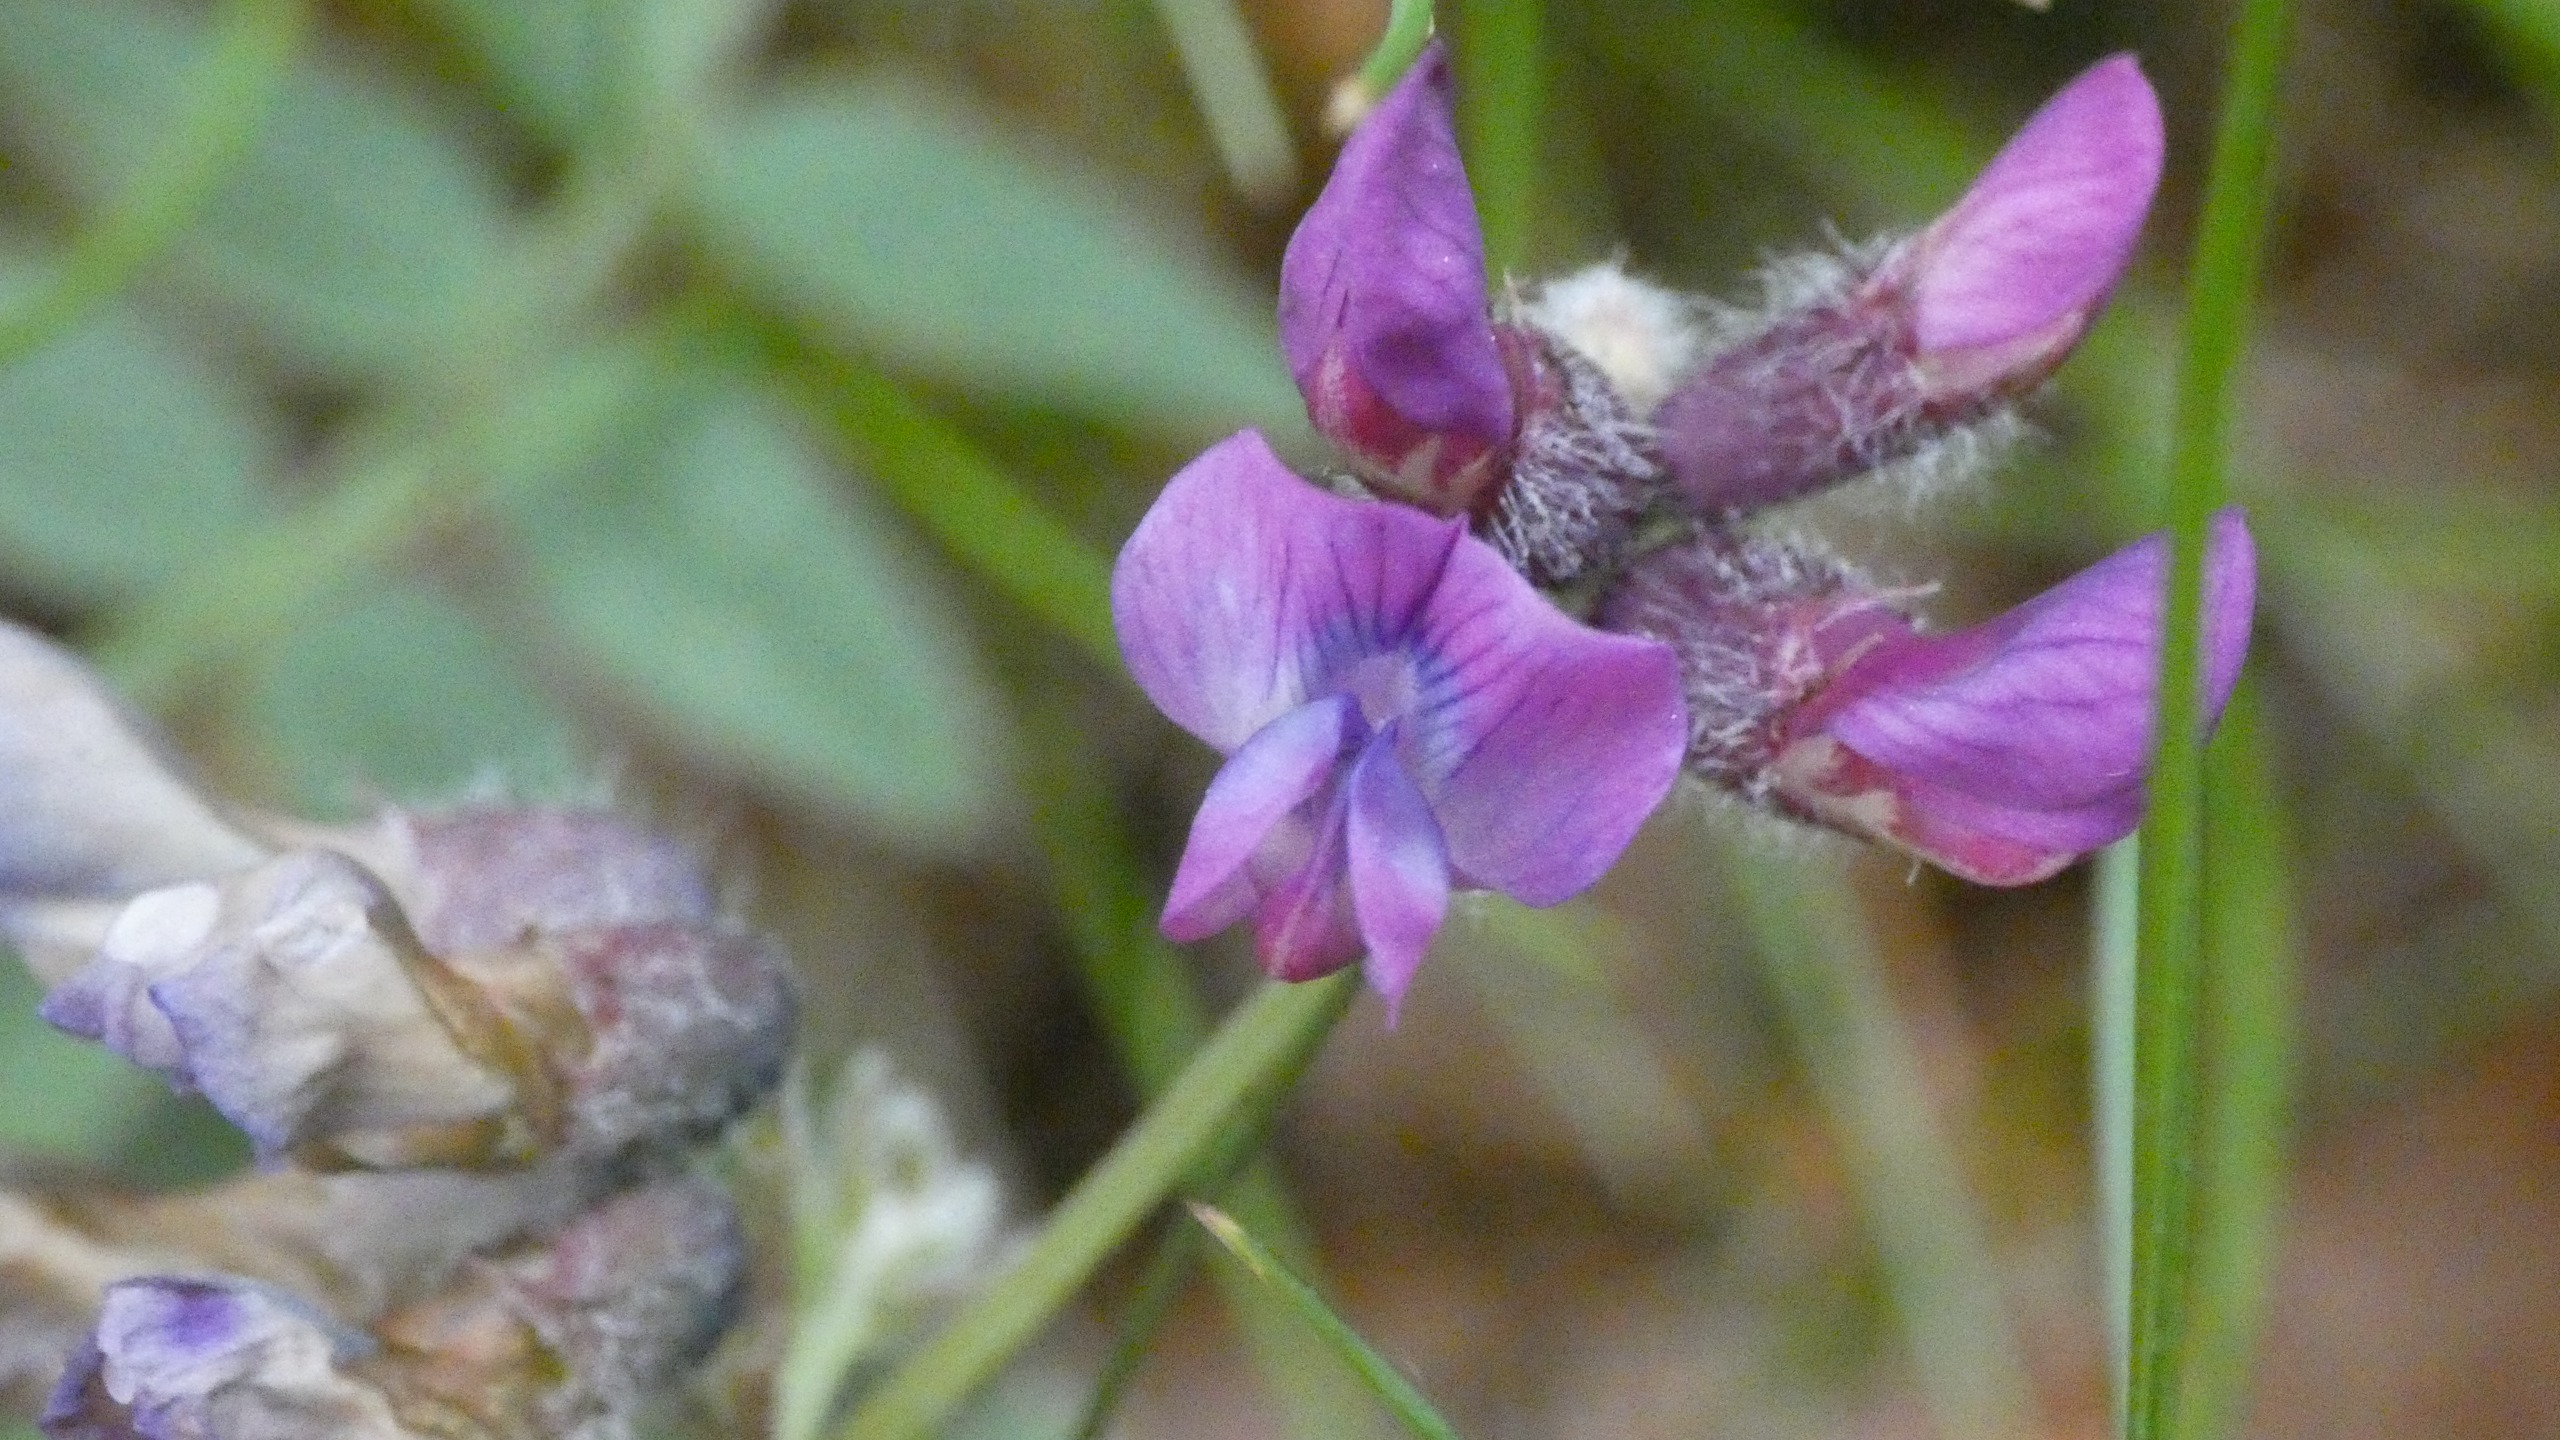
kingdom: Plantae
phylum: Tracheophyta
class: Magnoliopsida
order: Fabales
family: Fabaceae
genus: Vicia
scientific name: Vicia cracca
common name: Muse-vikke
